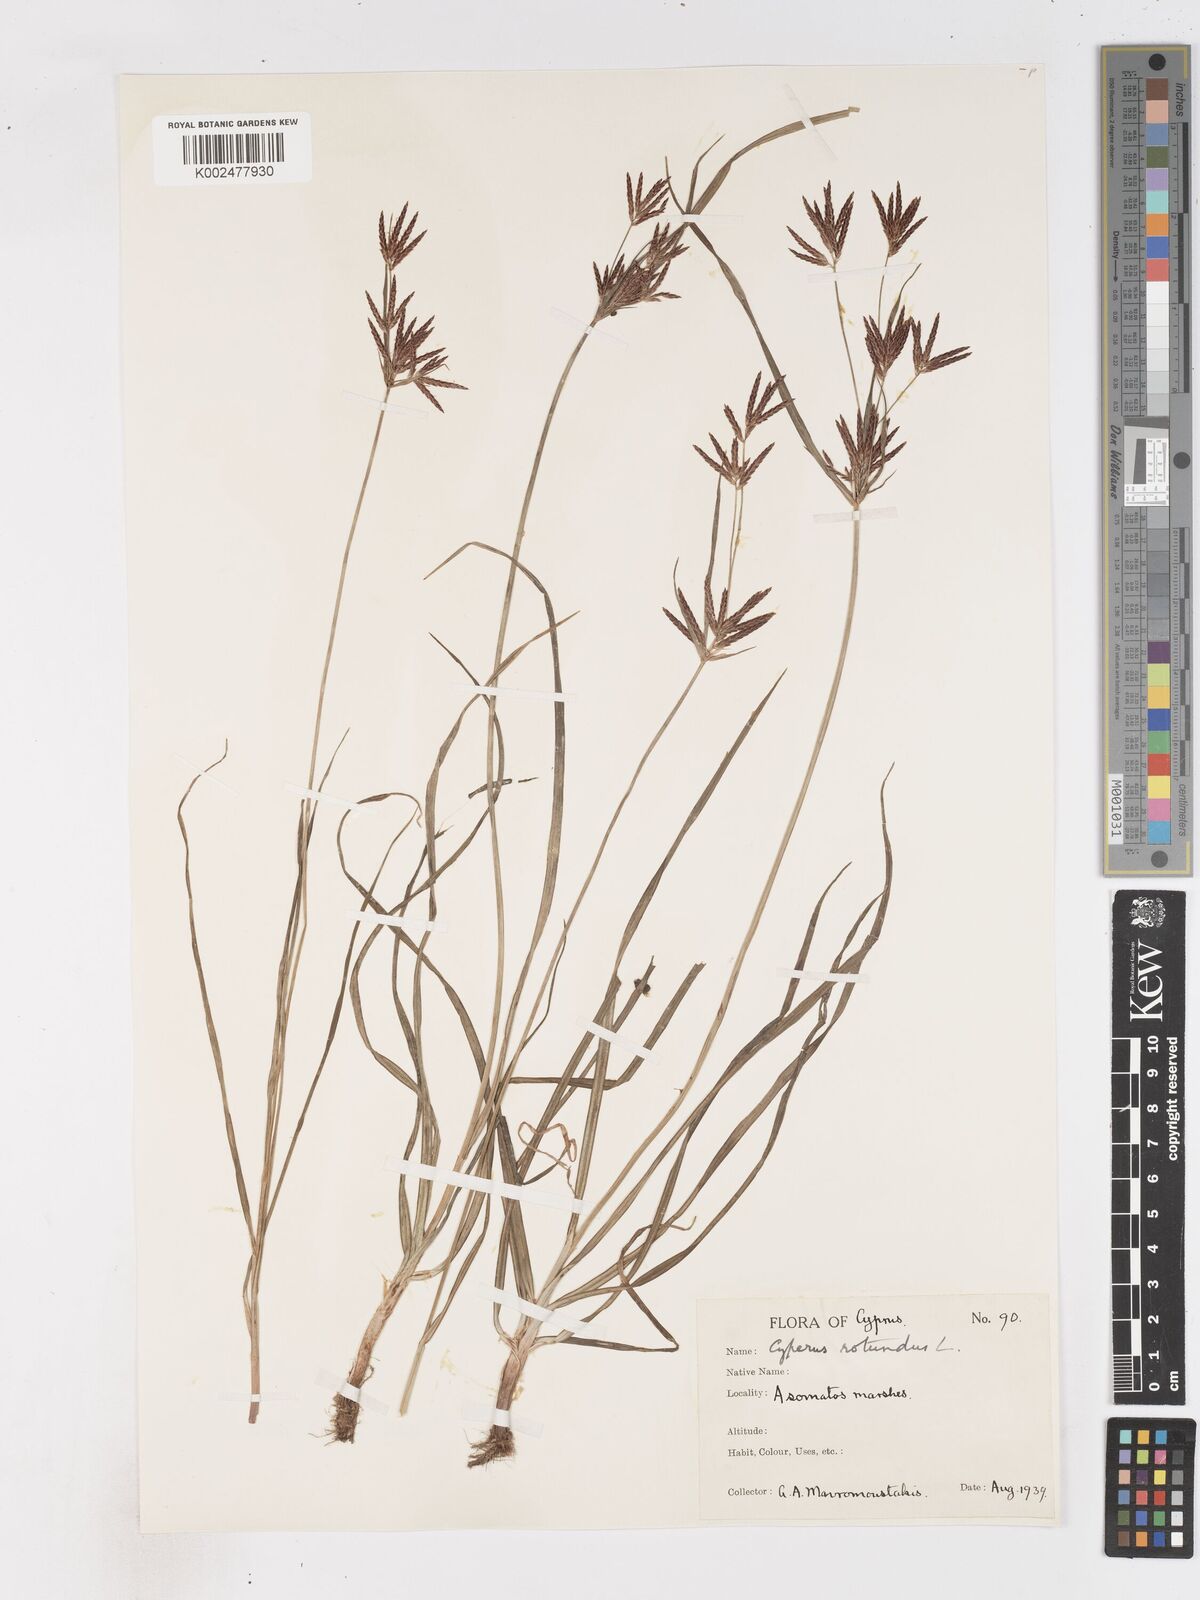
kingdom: Plantae
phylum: Tracheophyta
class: Liliopsida
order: Poales
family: Cyperaceae
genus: Cyperus
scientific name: Cyperus rotundus
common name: Nutgrass
